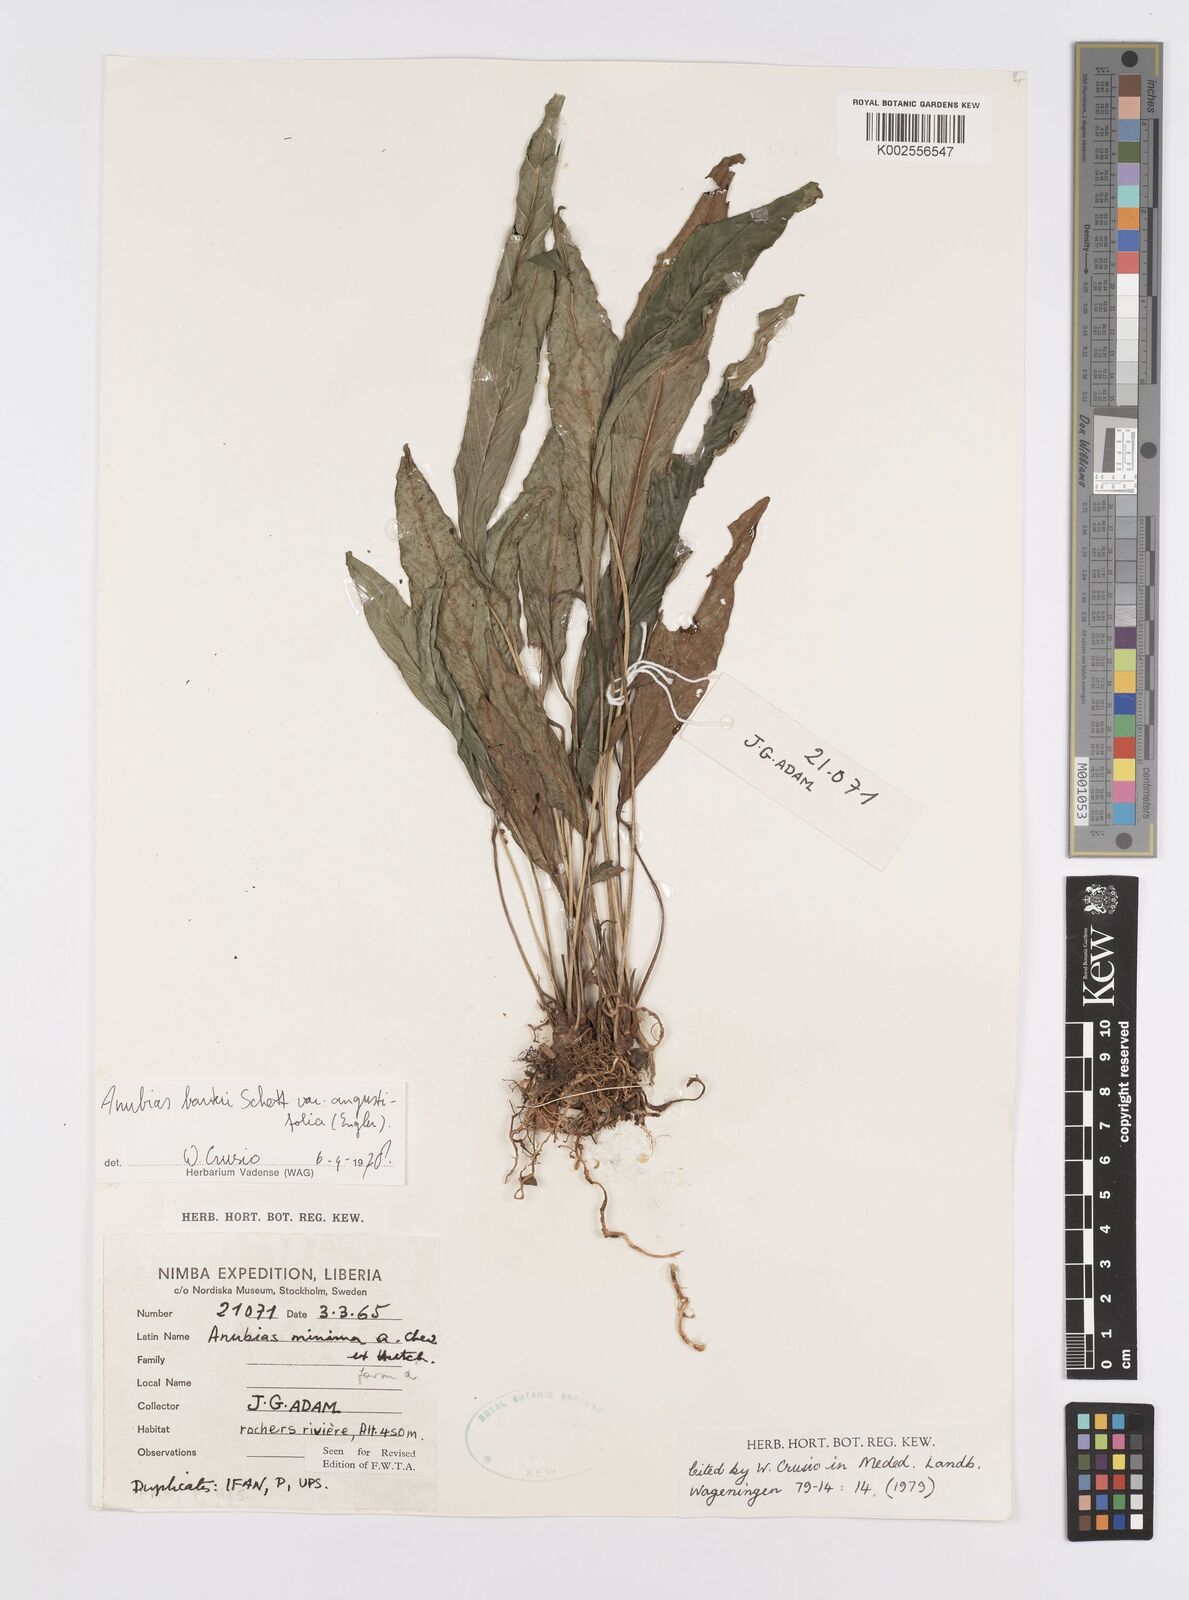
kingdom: Plantae
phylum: Tracheophyta
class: Liliopsida
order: Alismatales
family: Araceae
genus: Anubias
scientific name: Anubias barteri
